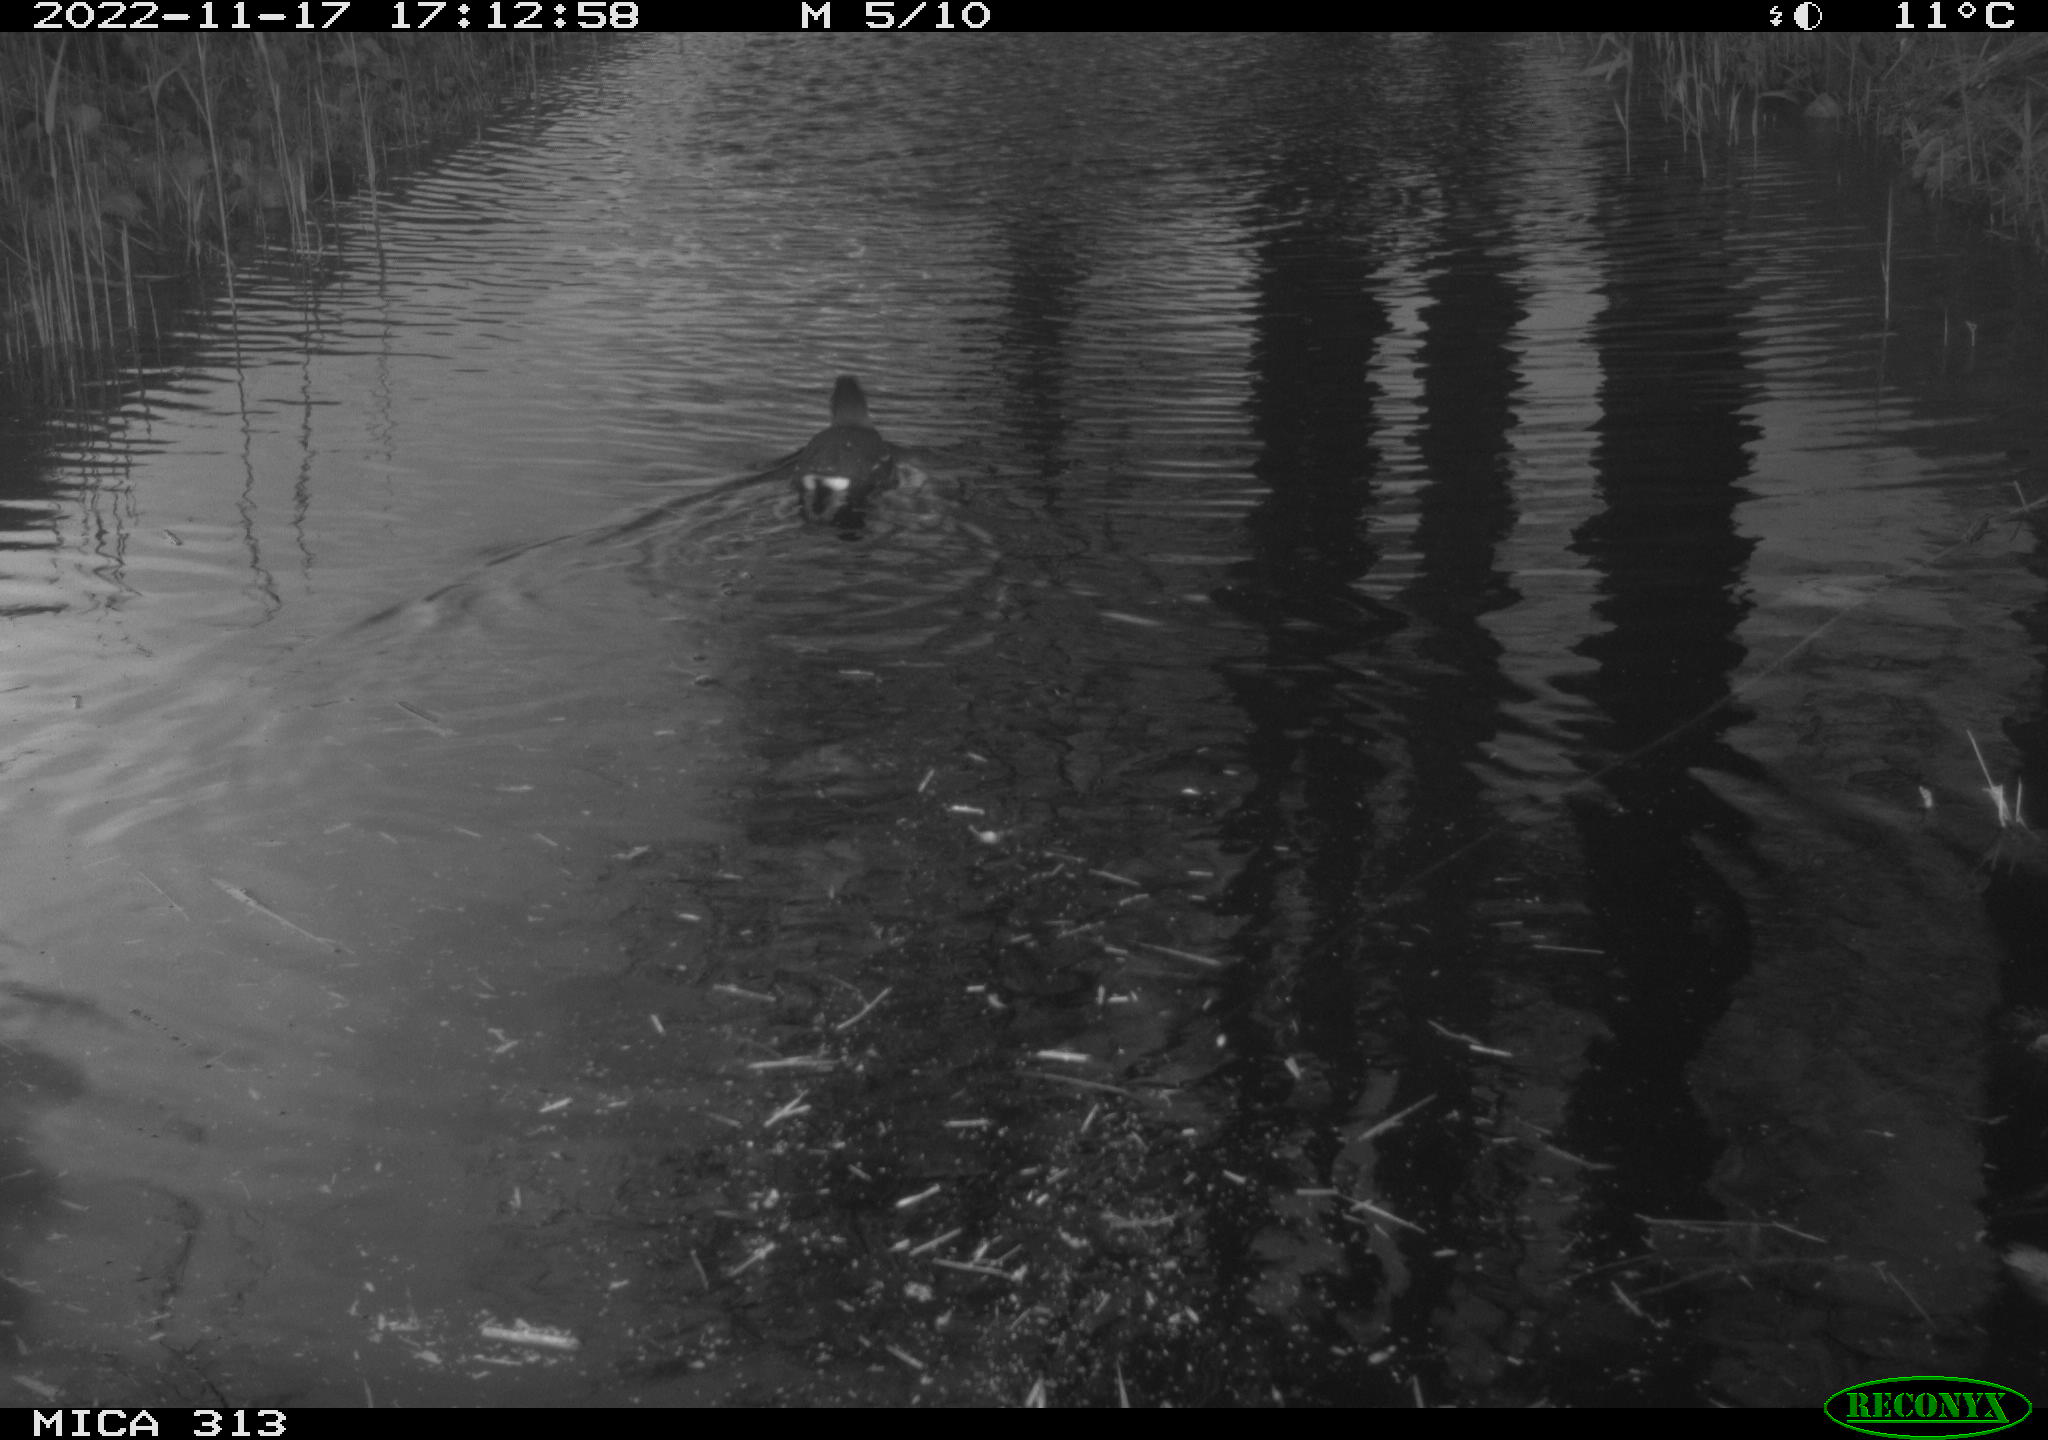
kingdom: Animalia
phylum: Chordata
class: Aves
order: Gruiformes
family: Rallidae
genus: Gallinula
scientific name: Gallinula chloropus
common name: Common moorhen
